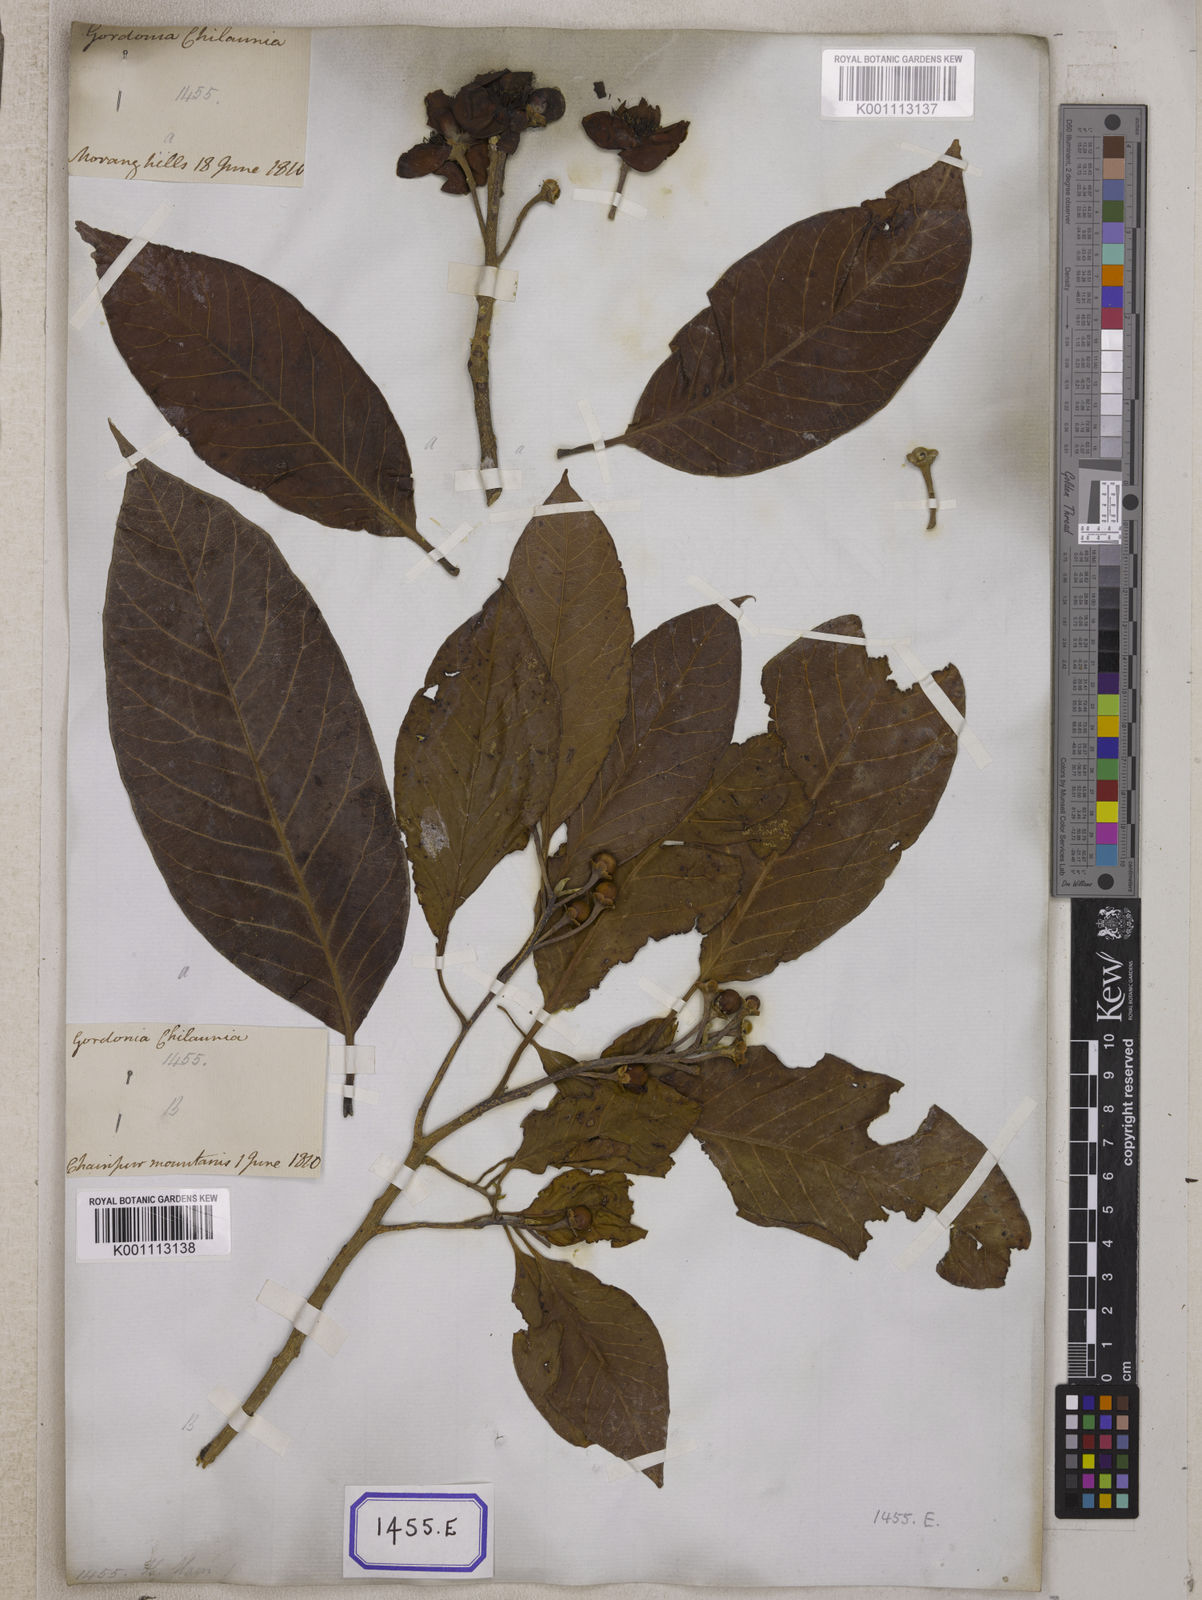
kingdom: Plantae
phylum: Tracheophyta
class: Magnoliopsida
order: Ericales
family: Theaceae
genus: Schima
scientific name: Schima wallichii
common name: Schima
